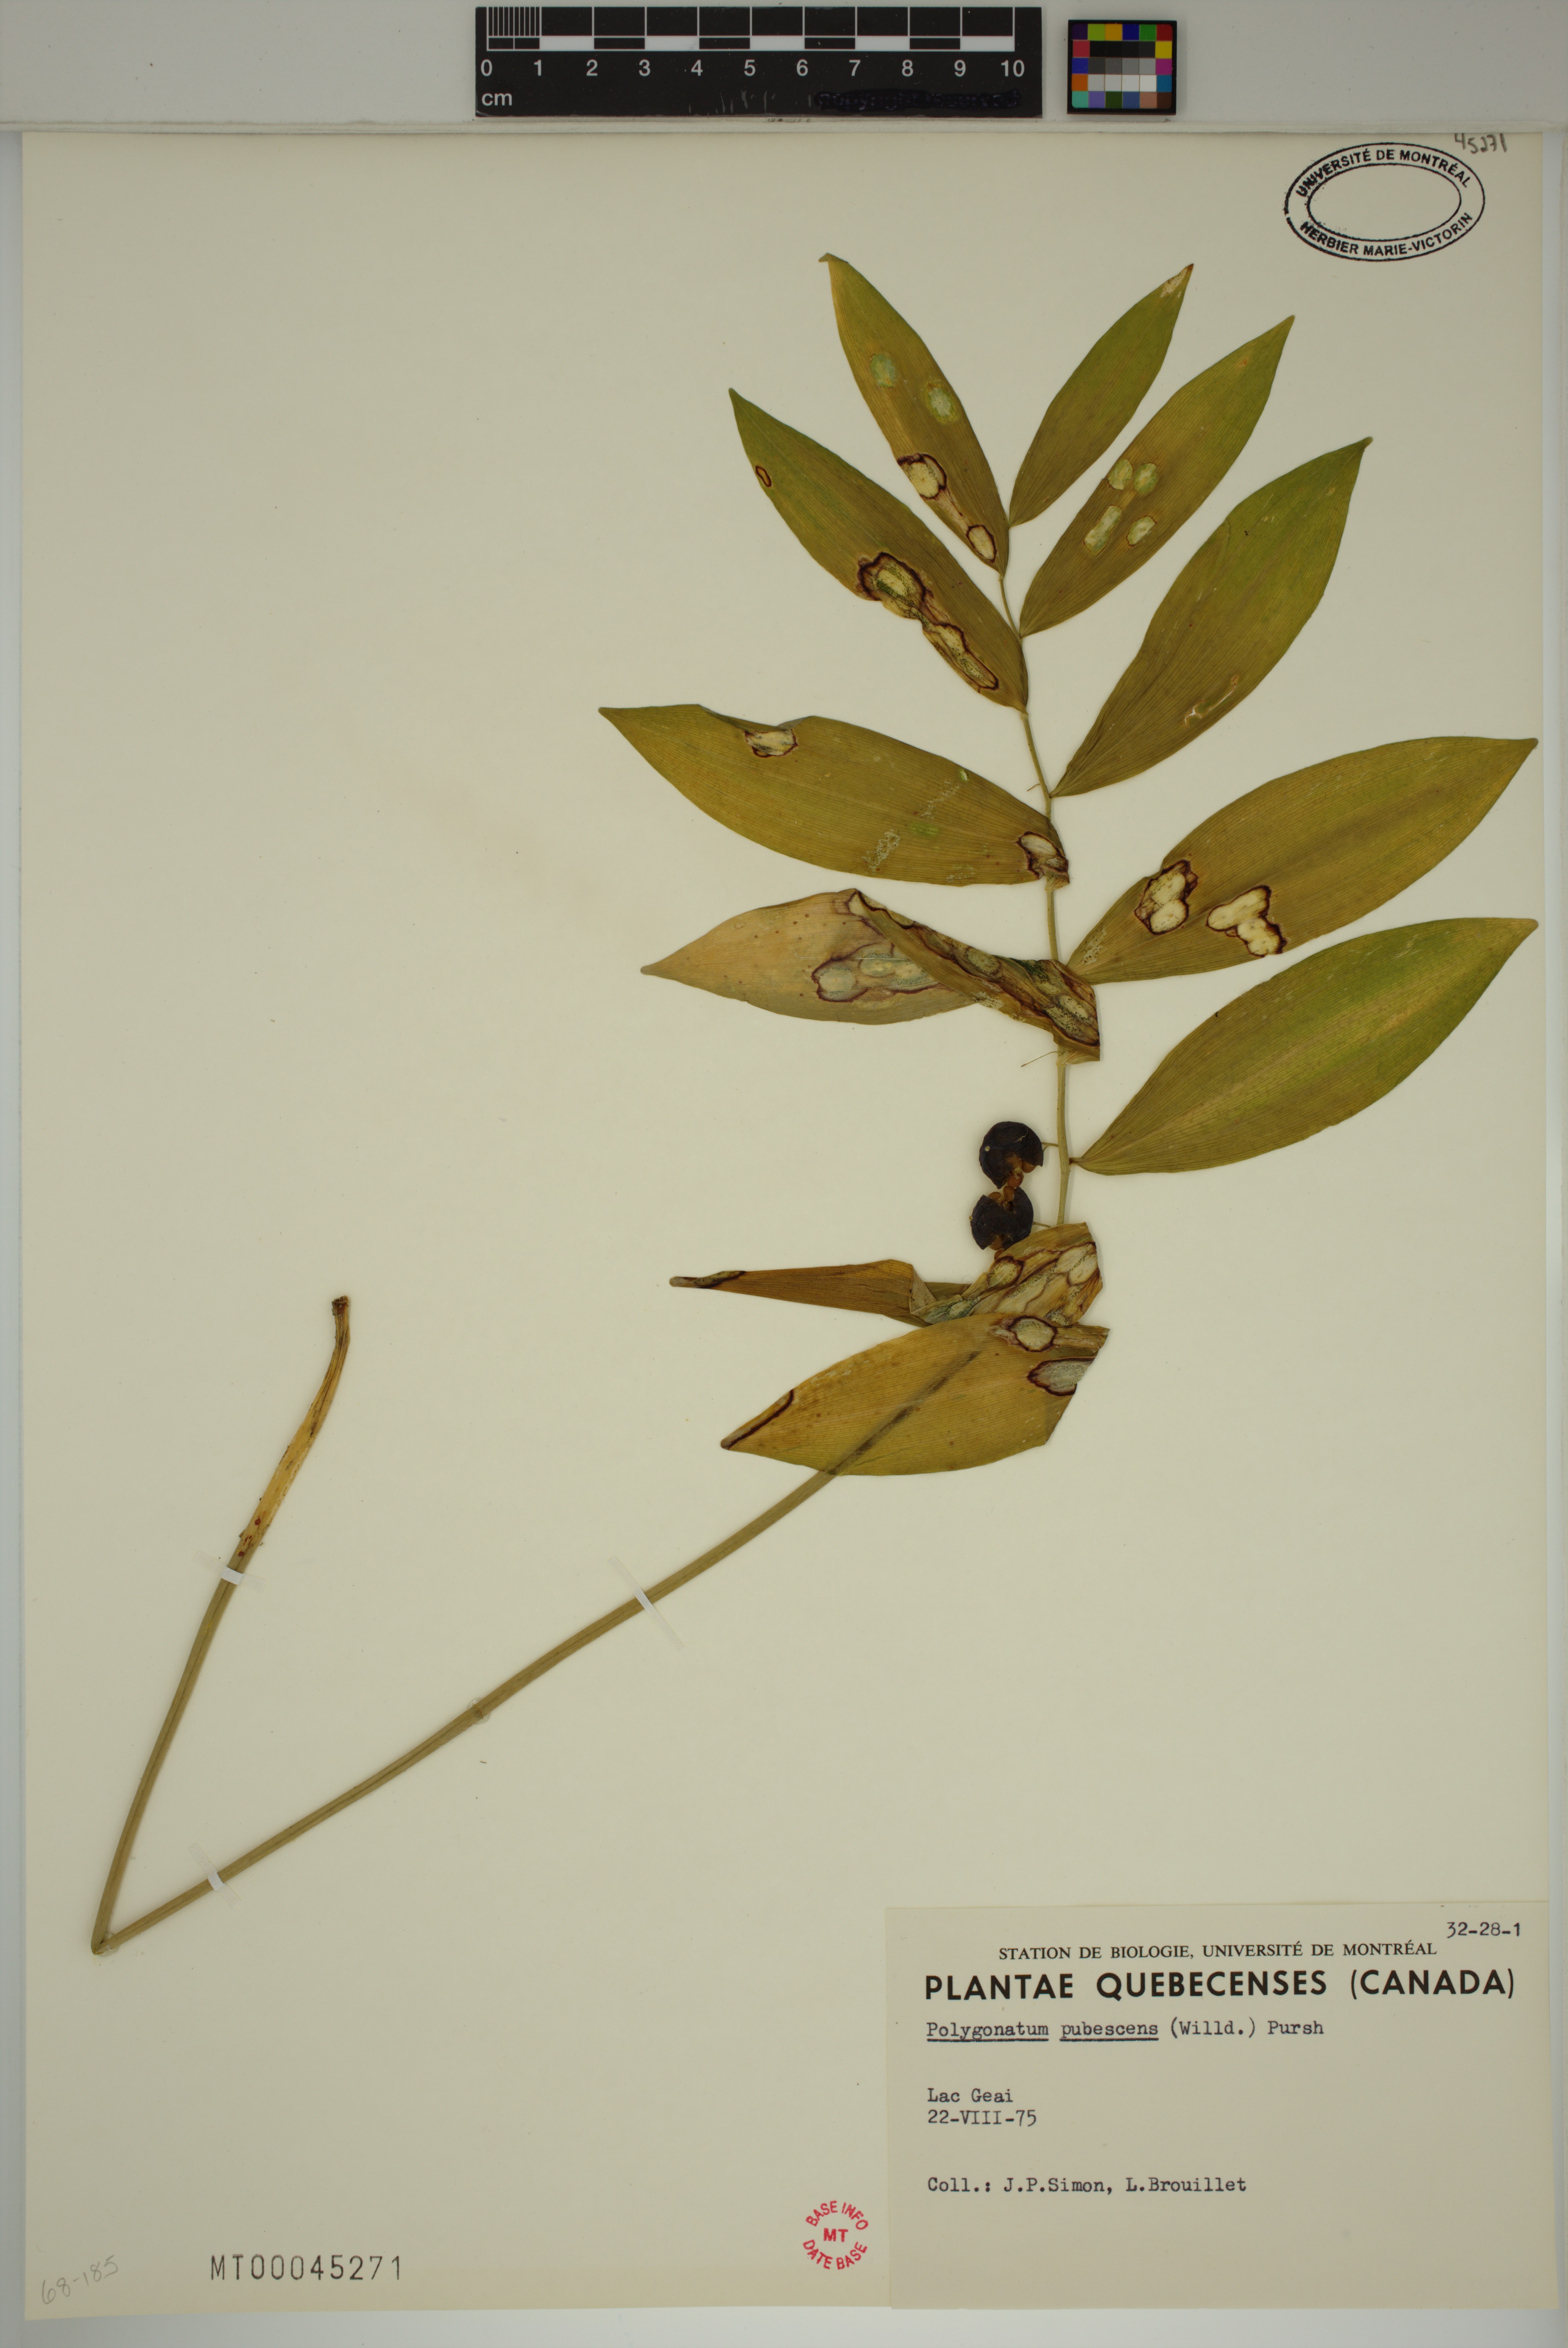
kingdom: Plantae
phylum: Tracheophyta
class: Liliopsida
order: Asparagales
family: Asparagaceae
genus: Polygonatum
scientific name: Polygonatum pubescens
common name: Downy solomon's seal
